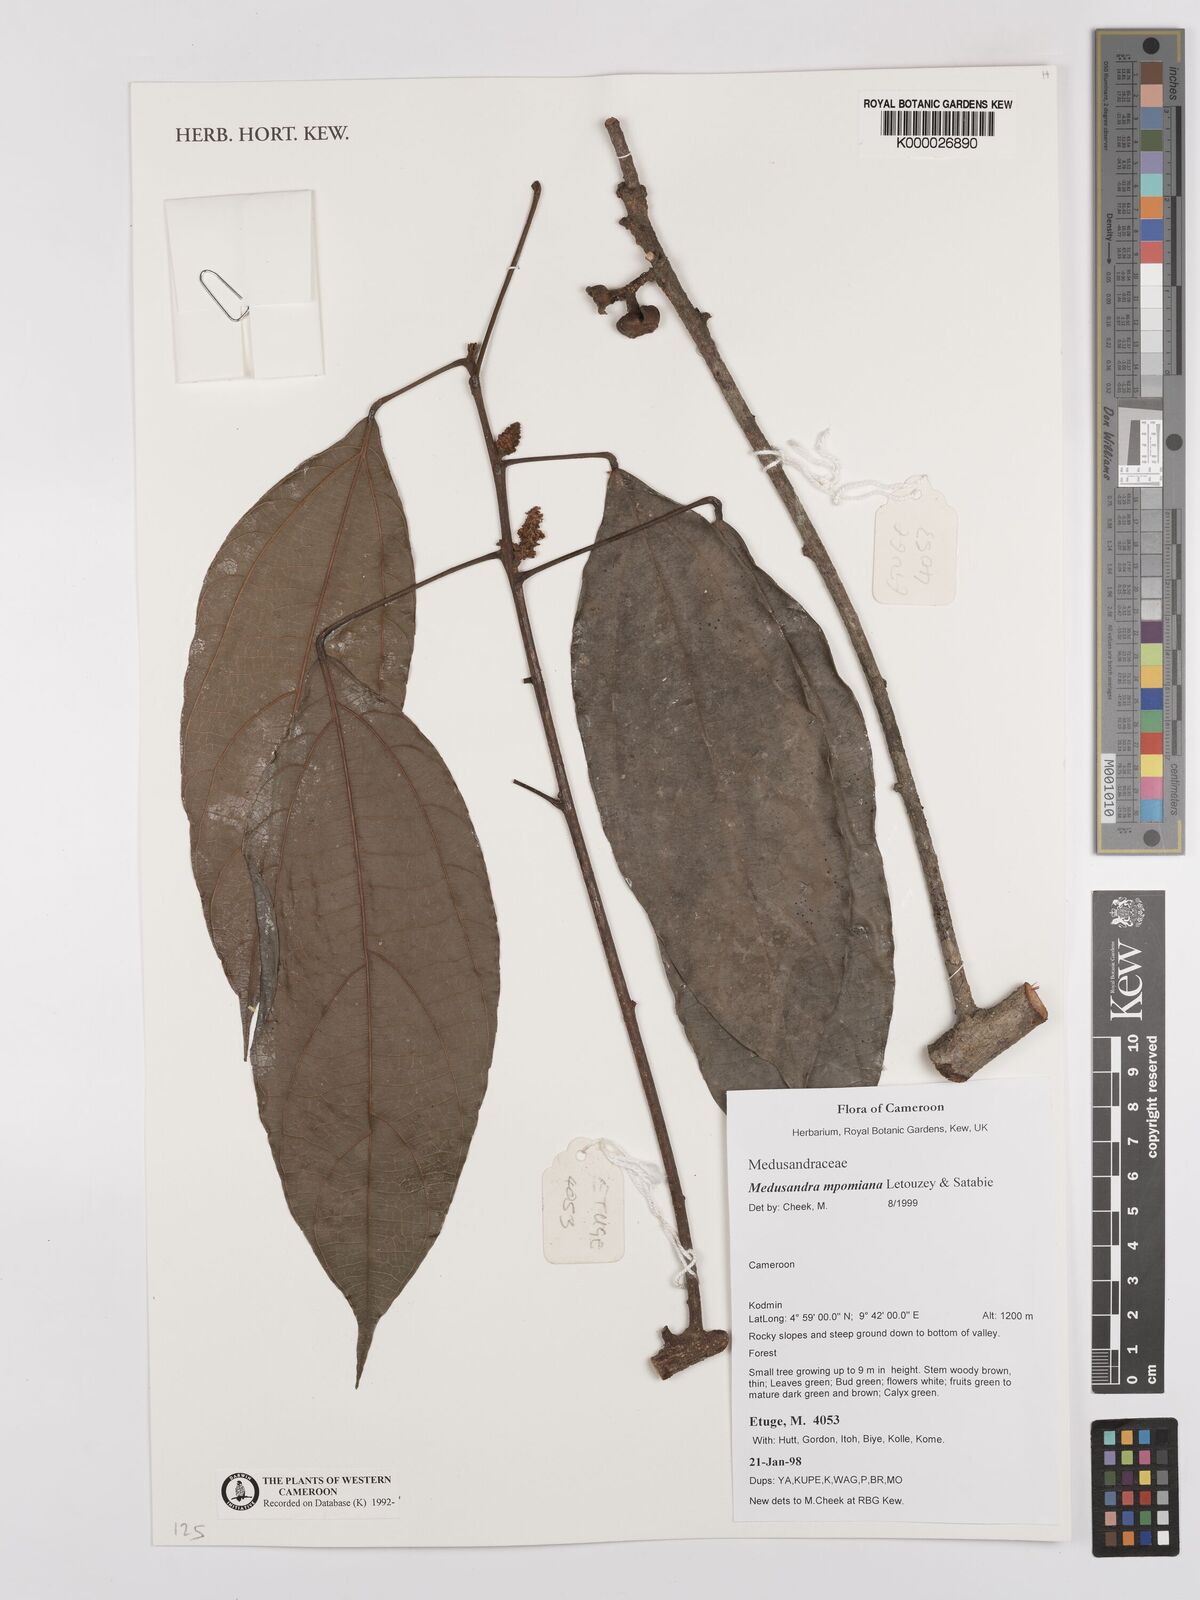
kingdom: Plantae
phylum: Tracheophyta
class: Magnoliopsida
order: Saxifragales
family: Peridiscaceae
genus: Medusandra
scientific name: Medusandra mpomiana
